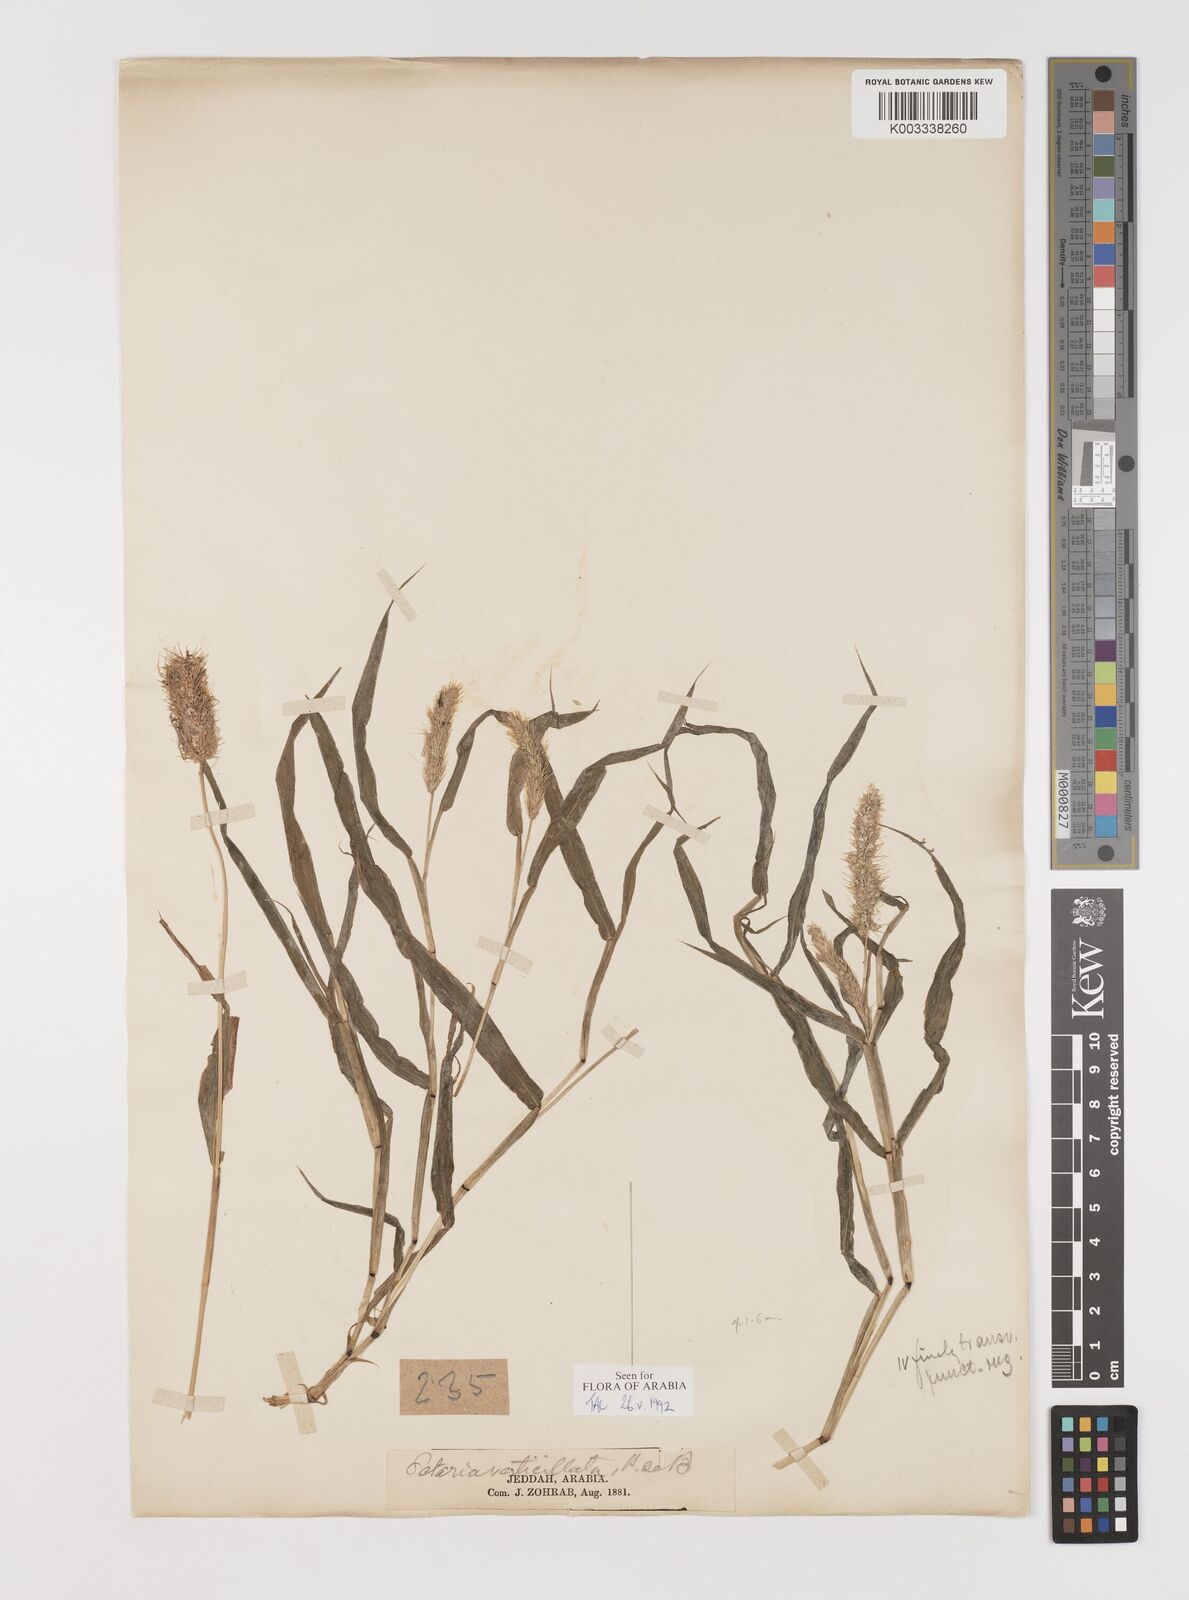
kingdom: Plantae
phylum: Tracheophyta
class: Liliopsida
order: Poales
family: Poaceae
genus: Setaria
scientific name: Setaria verticillata
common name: Hooked bristlegrass
